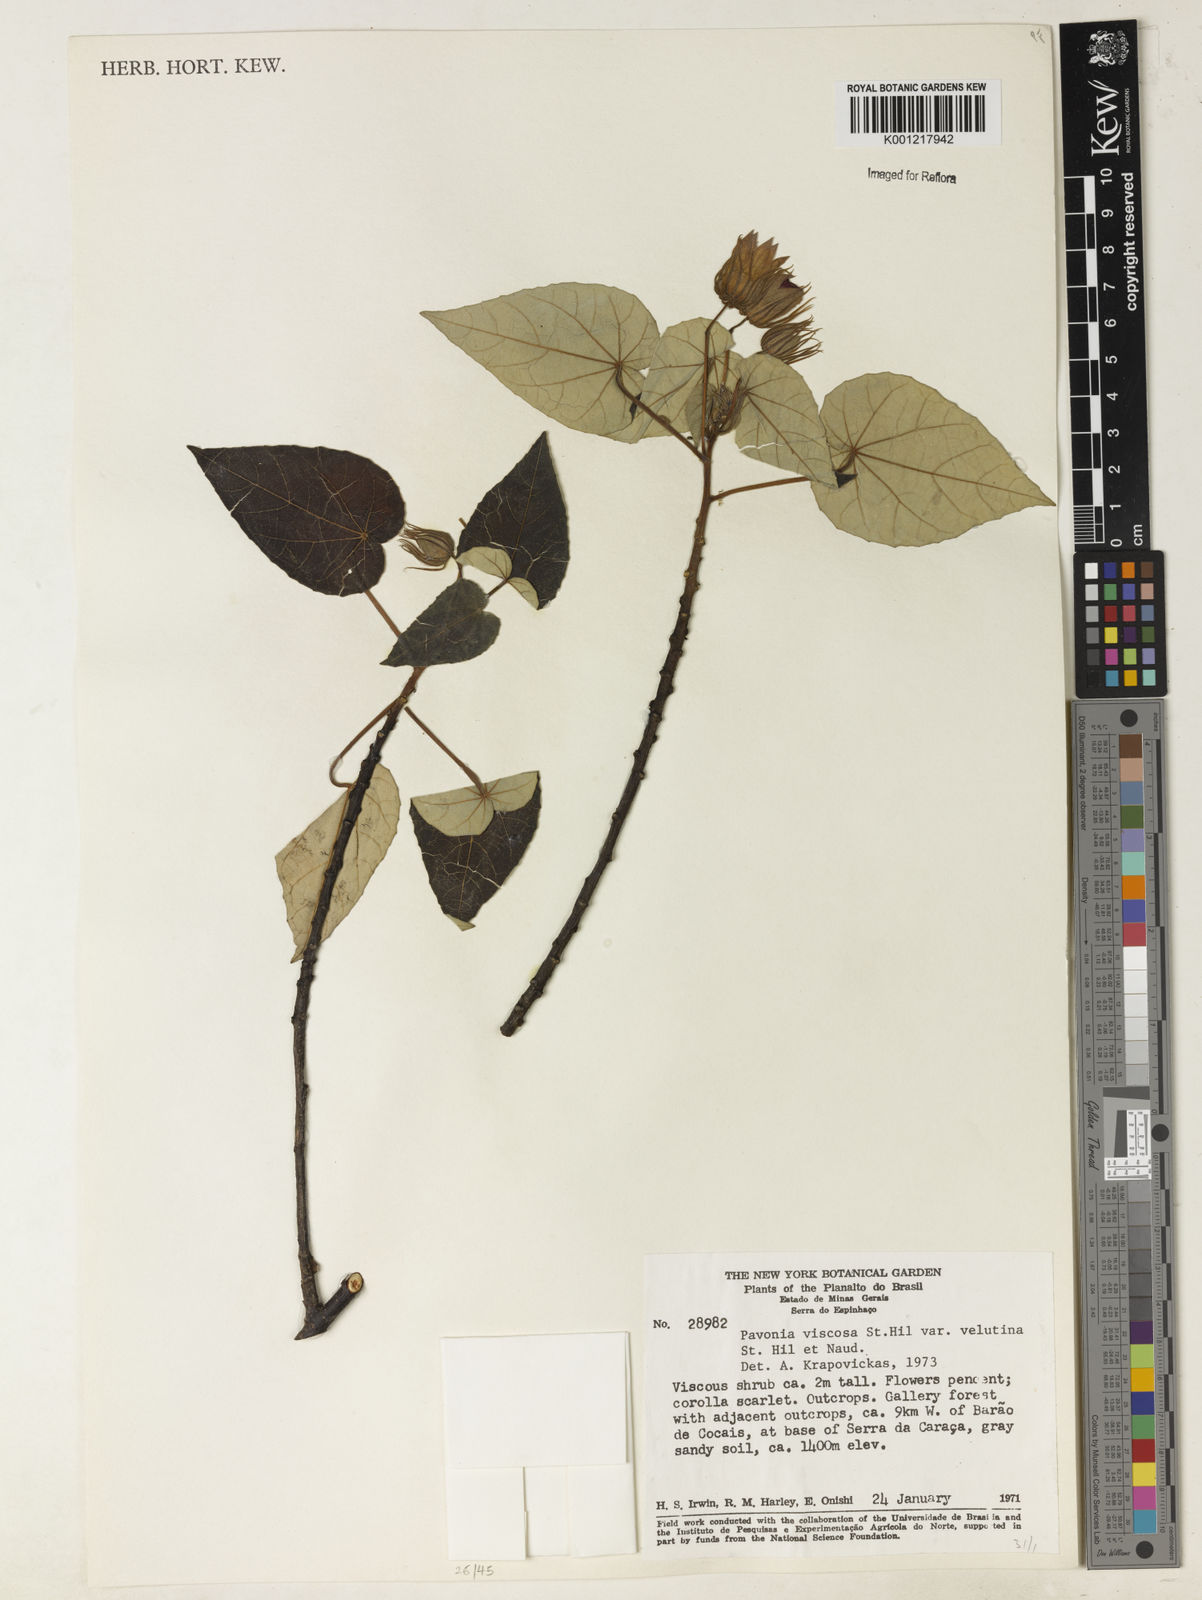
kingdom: Plantae
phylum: Tracheophyta
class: Magnoliopsida
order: Malvales
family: Malvaceae
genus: Pavonia
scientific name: Pavonia viscosa
